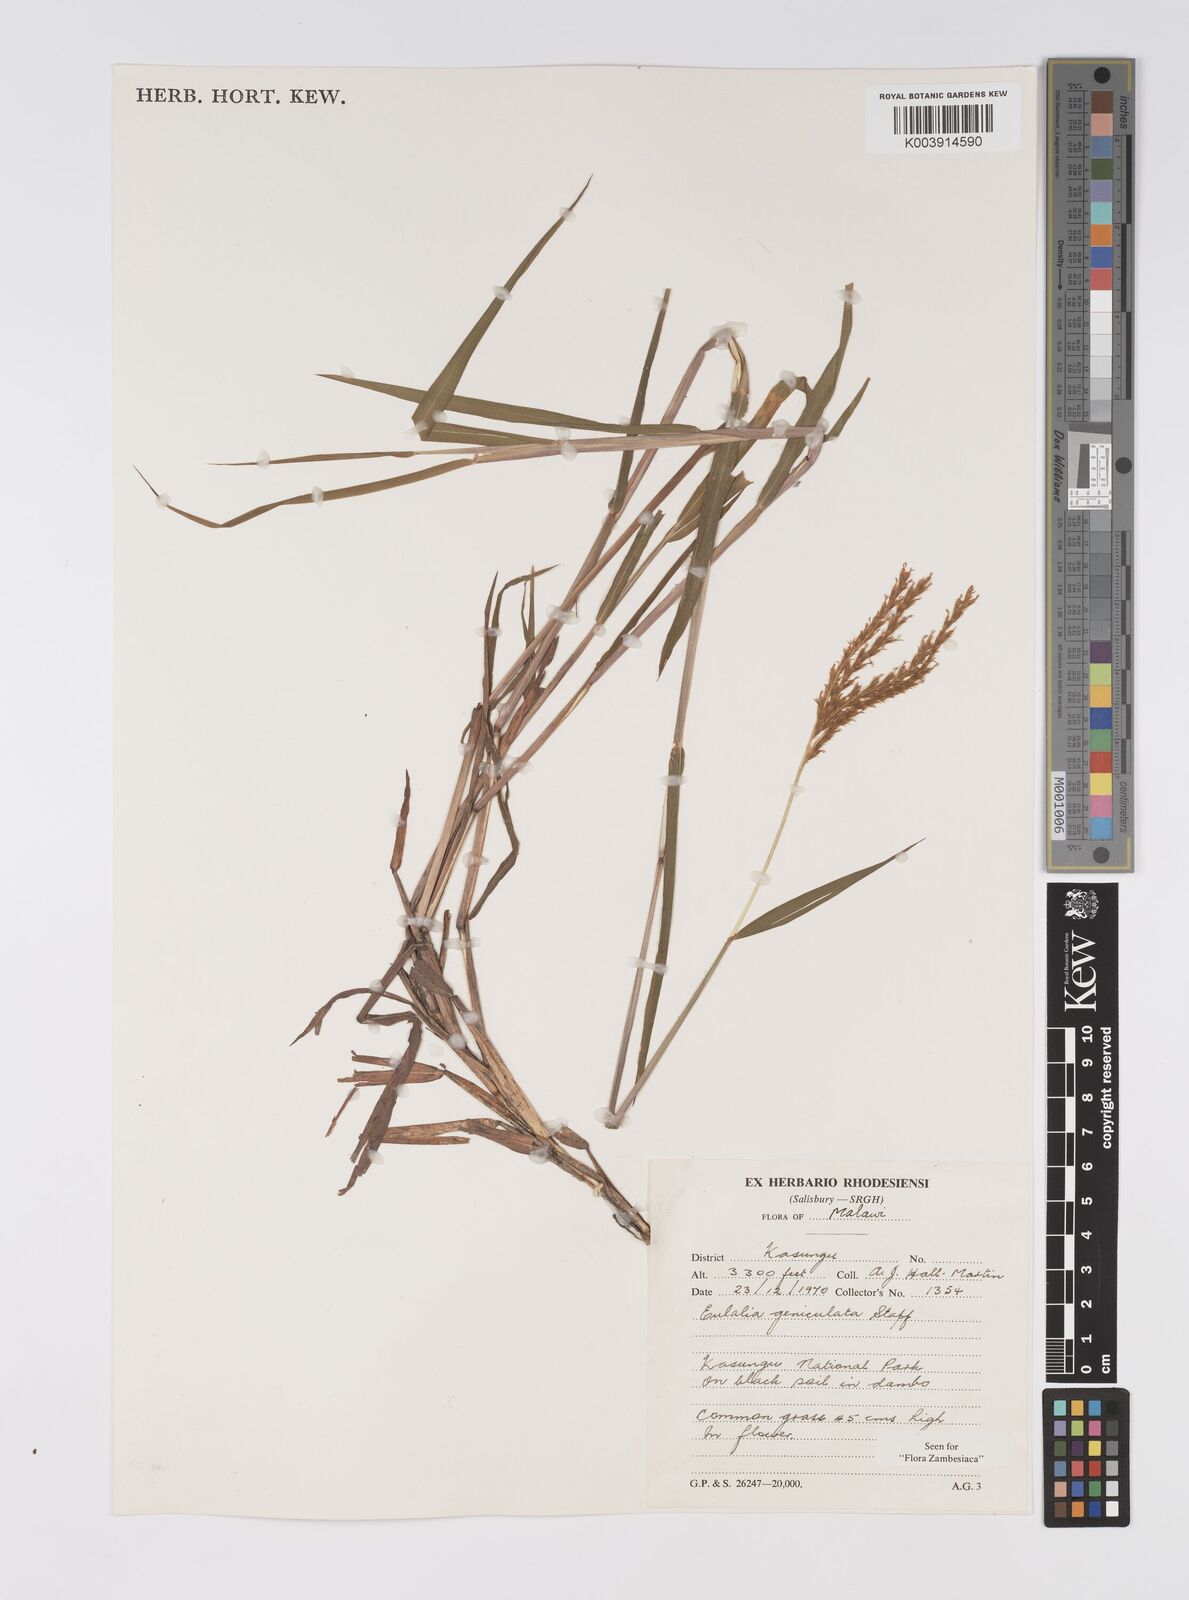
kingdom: Plantae
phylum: Tracheophyta
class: Liliopsida
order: Poales
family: Poaceae
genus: Eulalia
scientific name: Eulalia aurea
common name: Silky browntop
